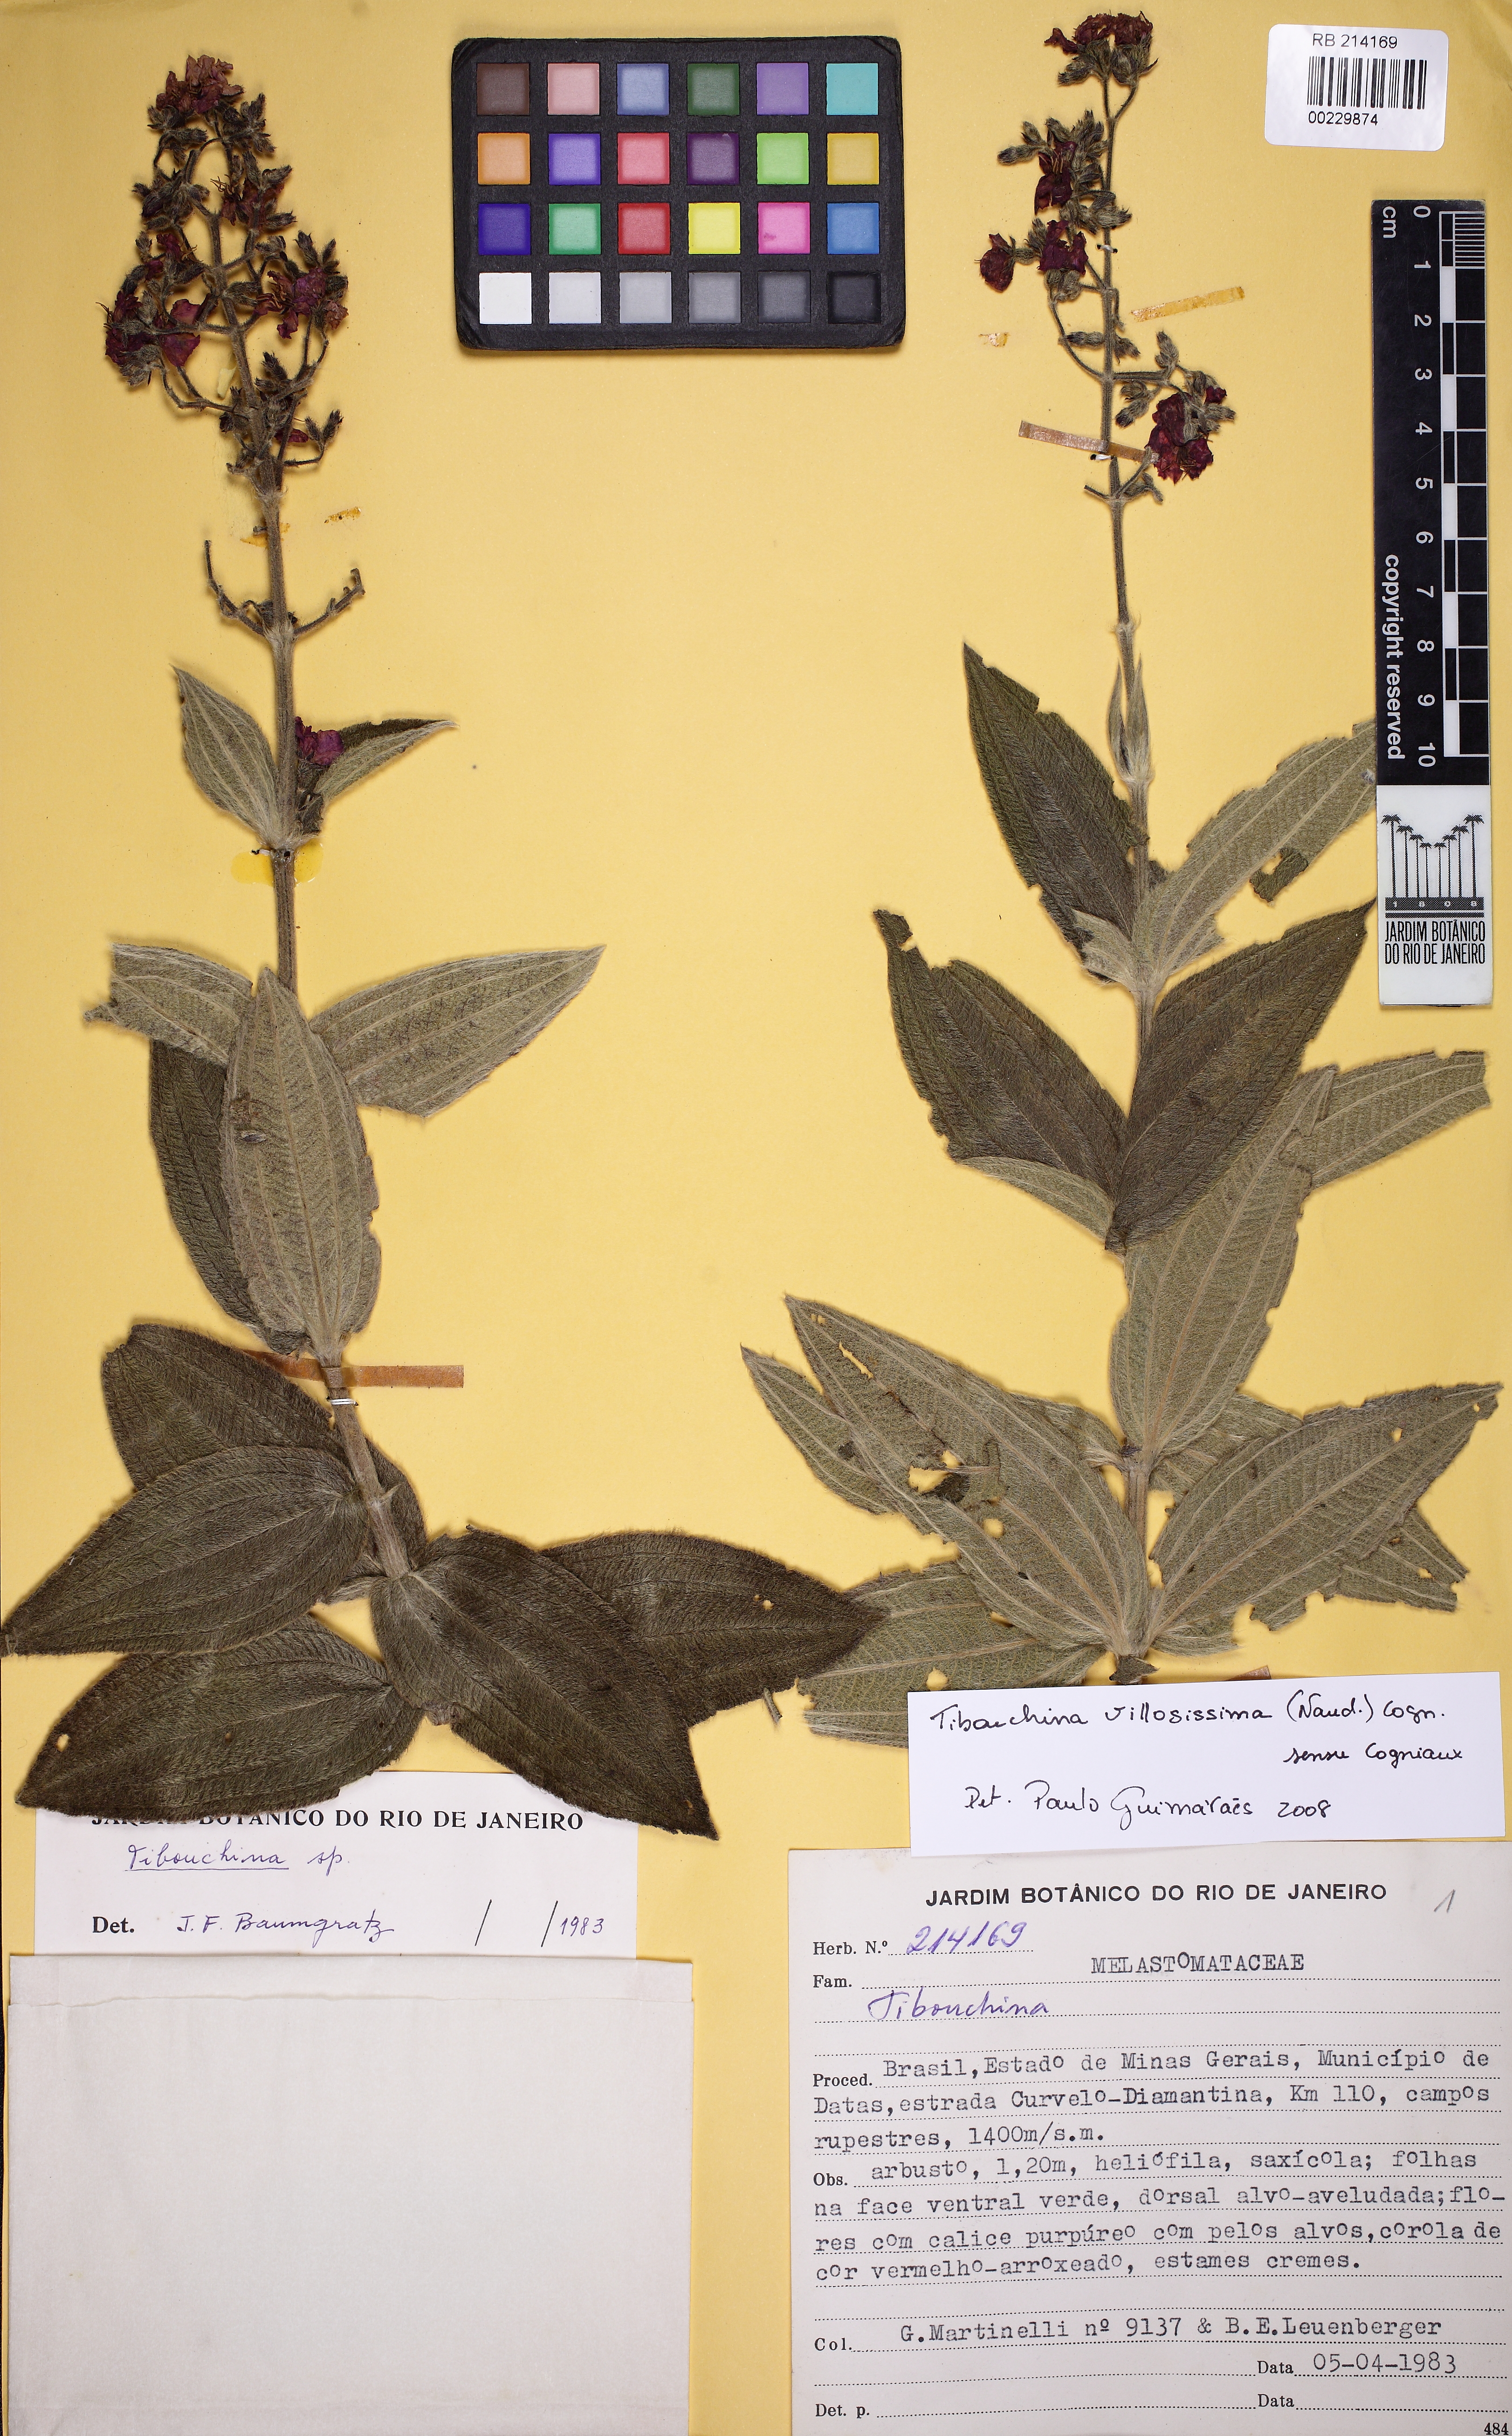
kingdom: Plantae
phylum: Tracheophyta
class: Magnoliopsida
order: Myrtales
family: Melastomataceae
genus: Pleroma
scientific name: Pleroma villosissimum
